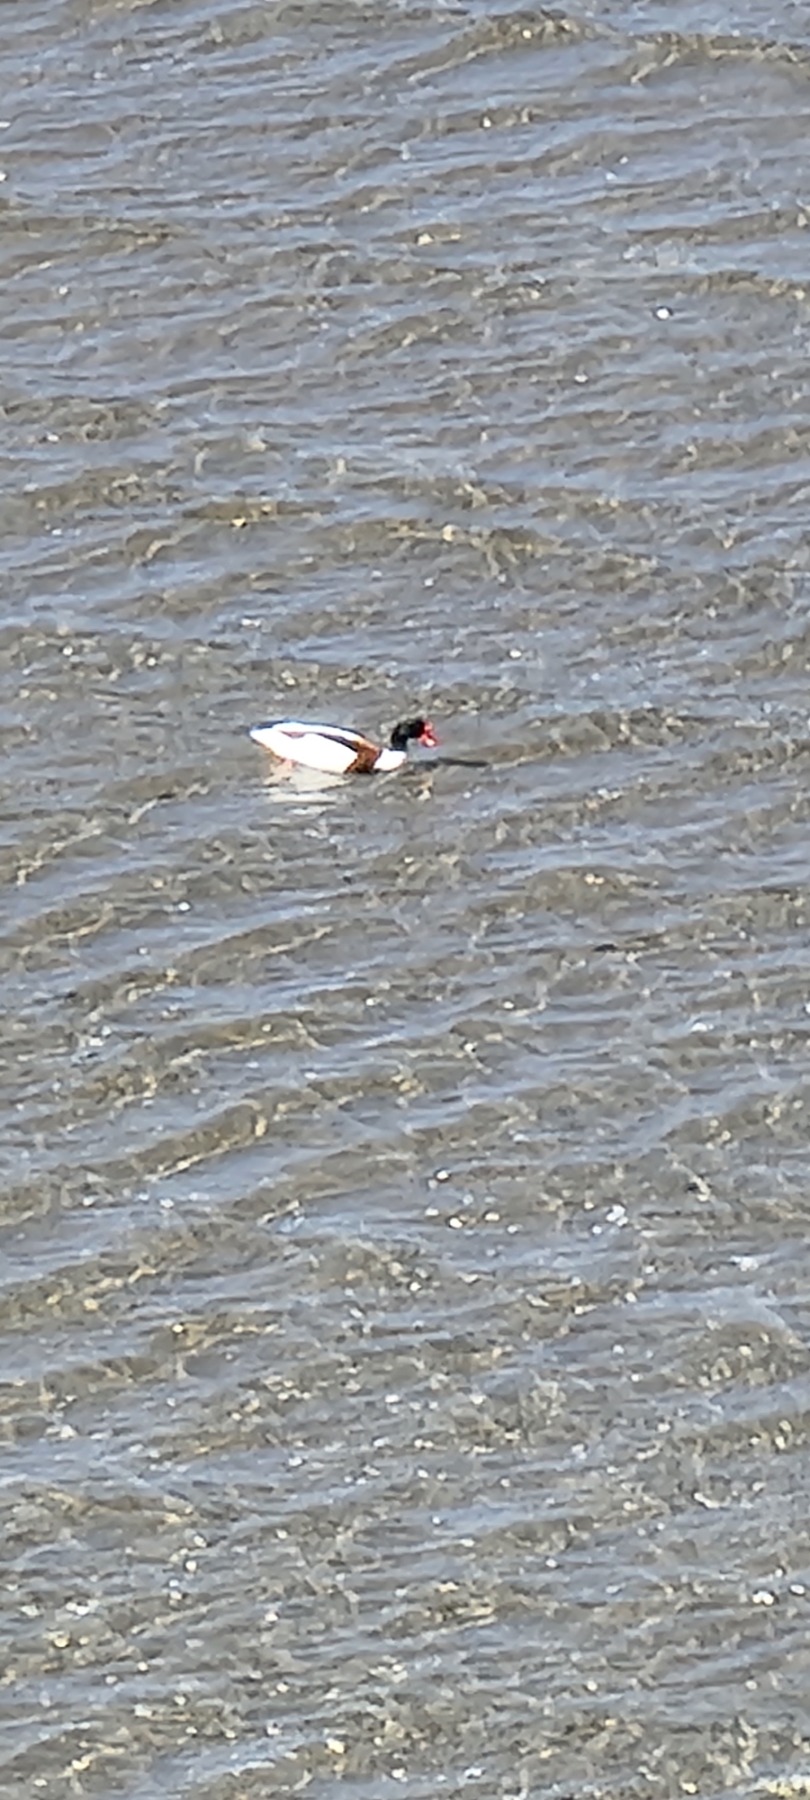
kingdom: Animalia
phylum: Chordata
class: Aves
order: Anseriformes
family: Anatidae
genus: Tadorna
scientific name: Tadorna tadorna
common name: Gravand
